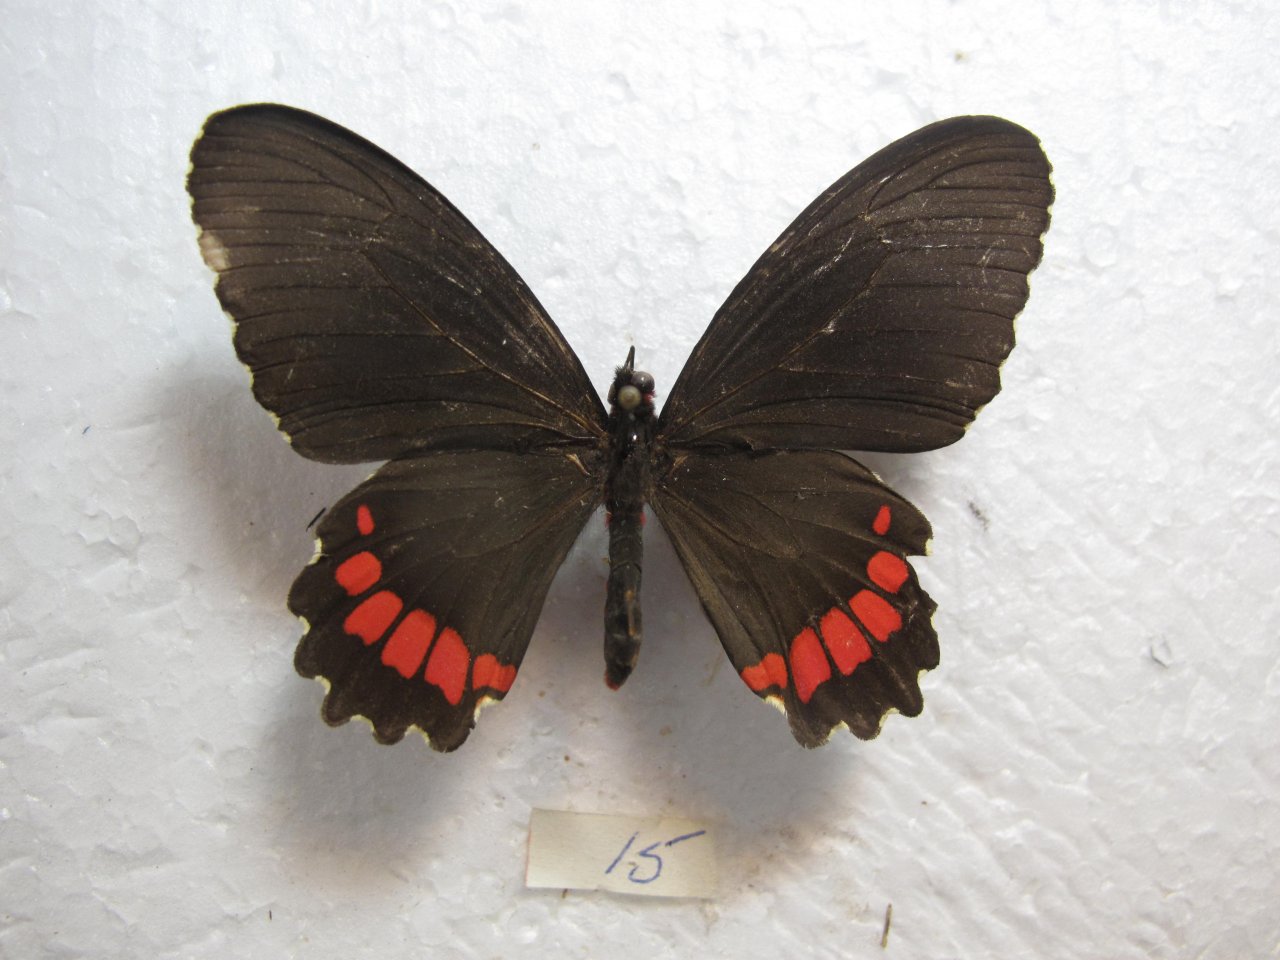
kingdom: Animalia
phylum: Arthropoda
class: Insecta
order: Lepidoptera
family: Papilionidae
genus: Parides
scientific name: Parides erithalion
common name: Variable Cattleheart
